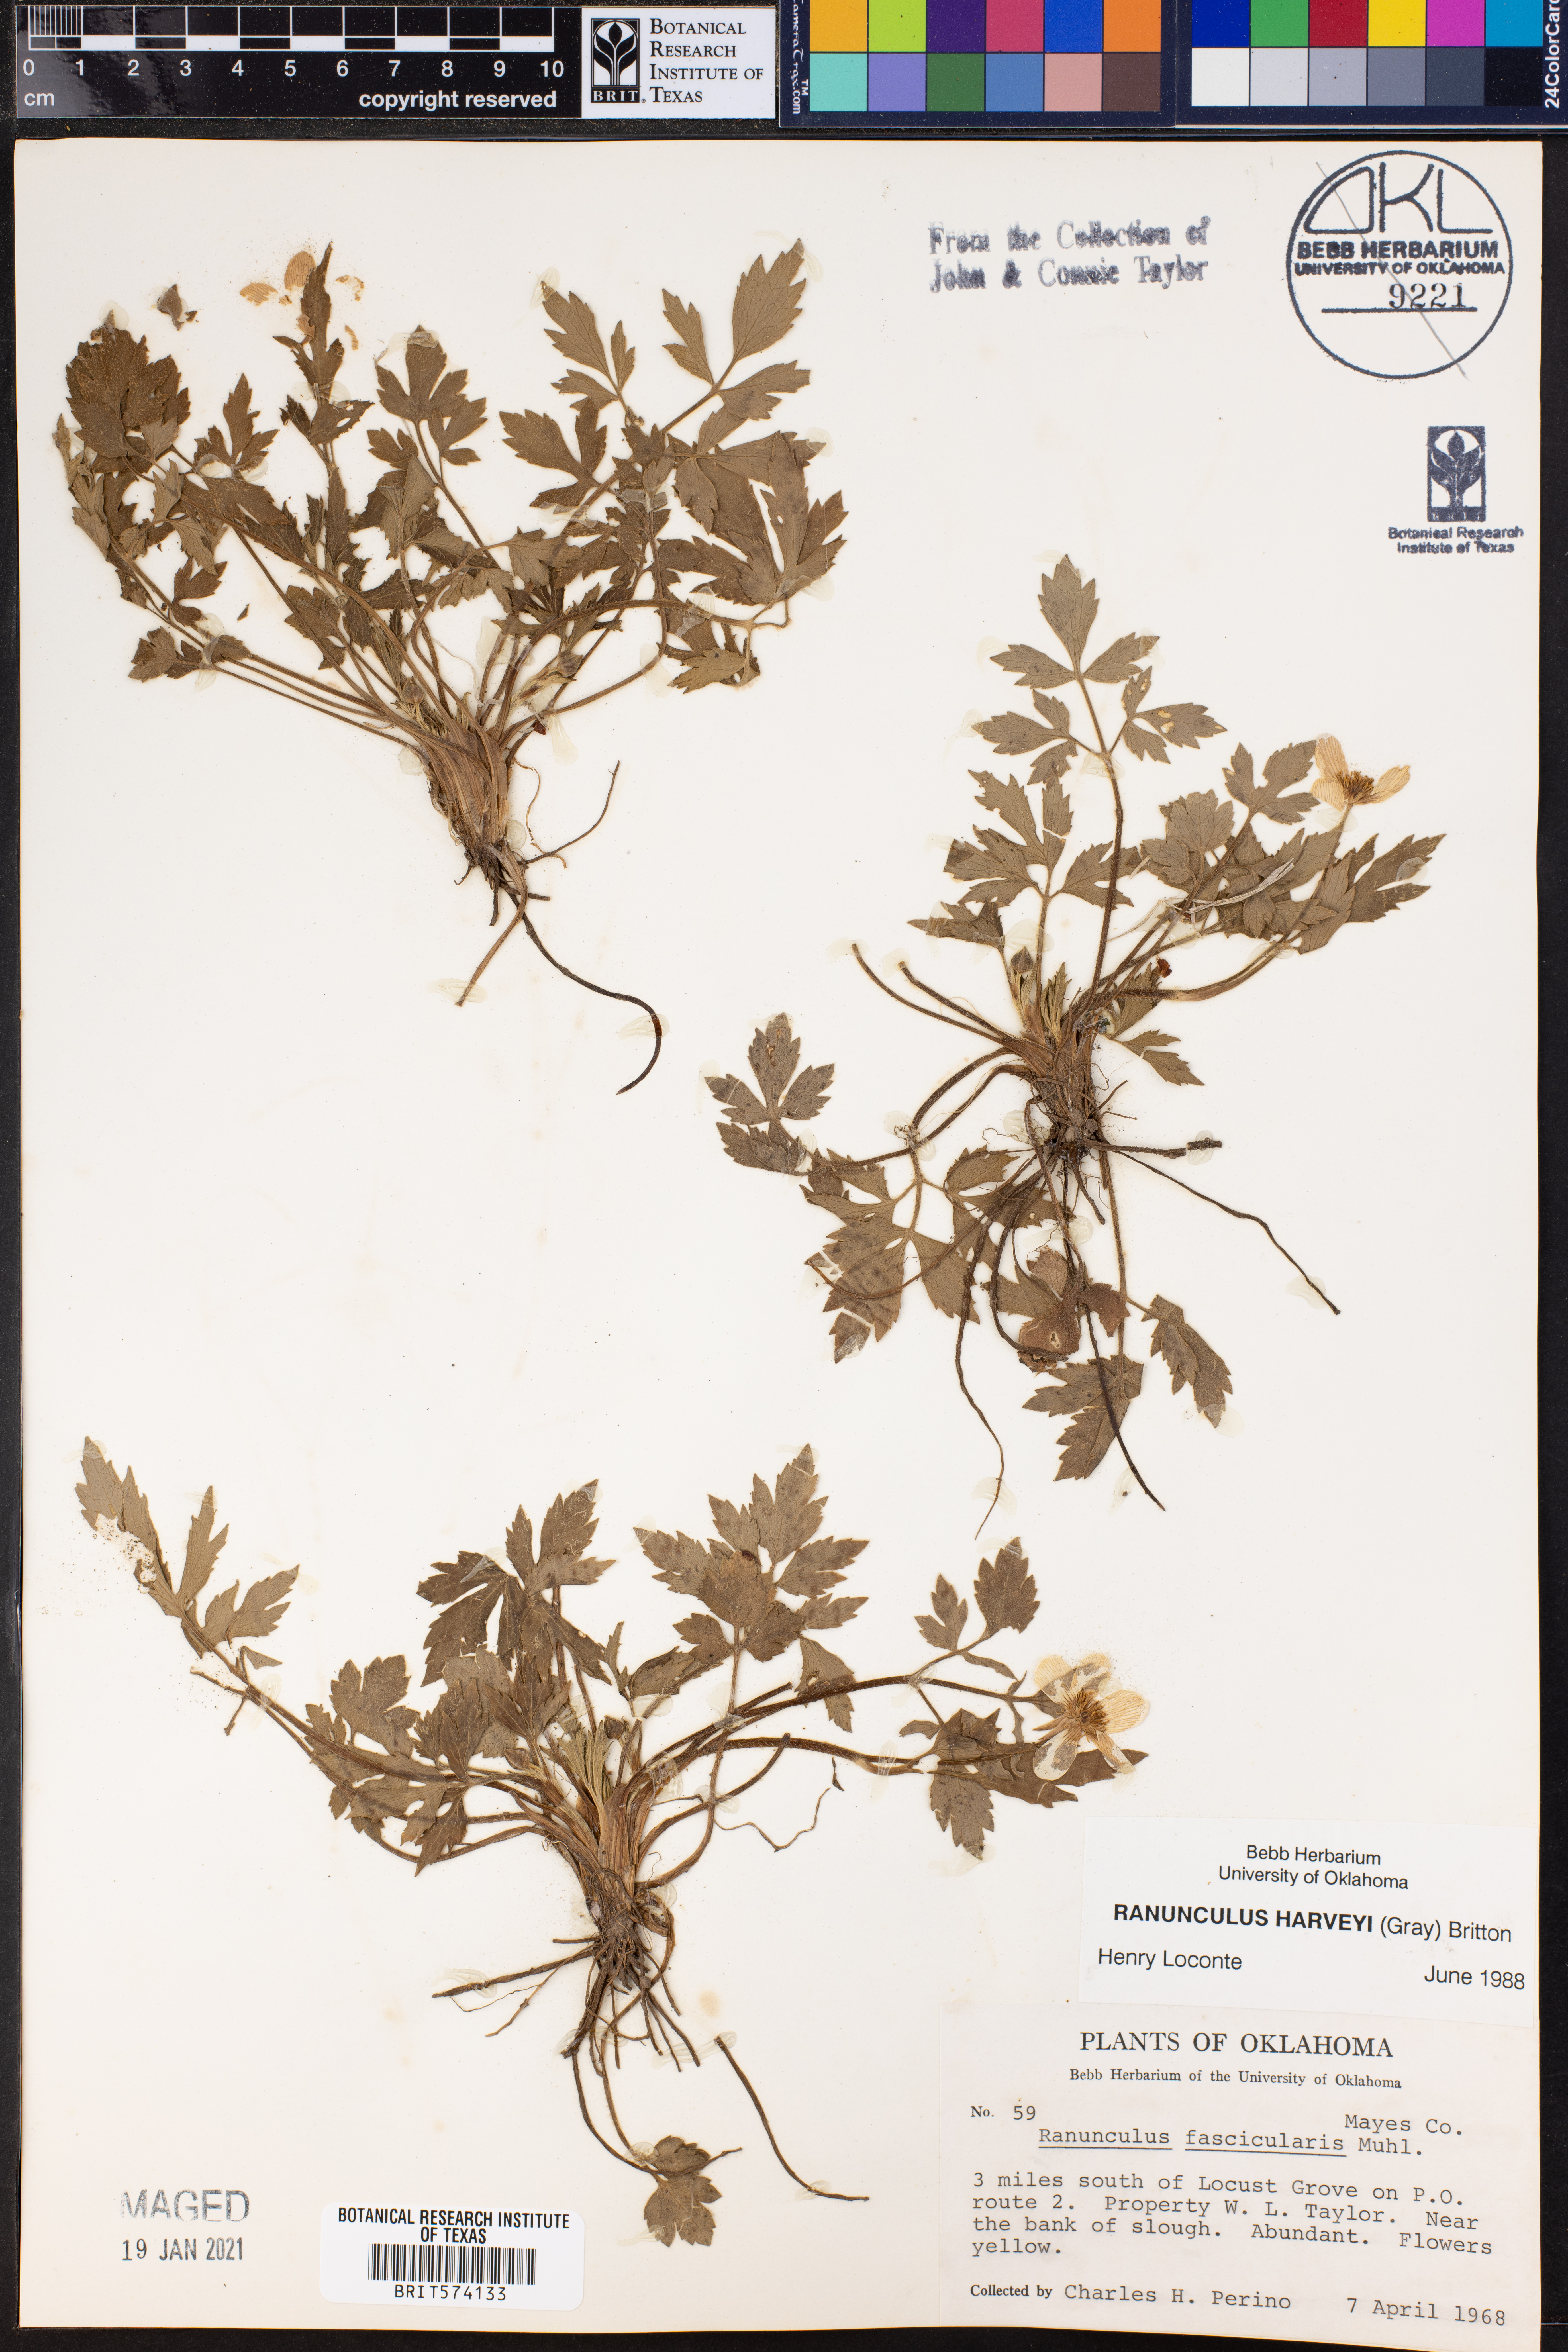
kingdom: Plantae
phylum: Tracheophyta
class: Magnoliopsida
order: Ranunculales
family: Ranunculaceae
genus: Ranunculus
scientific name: Ranunculus harveyi
